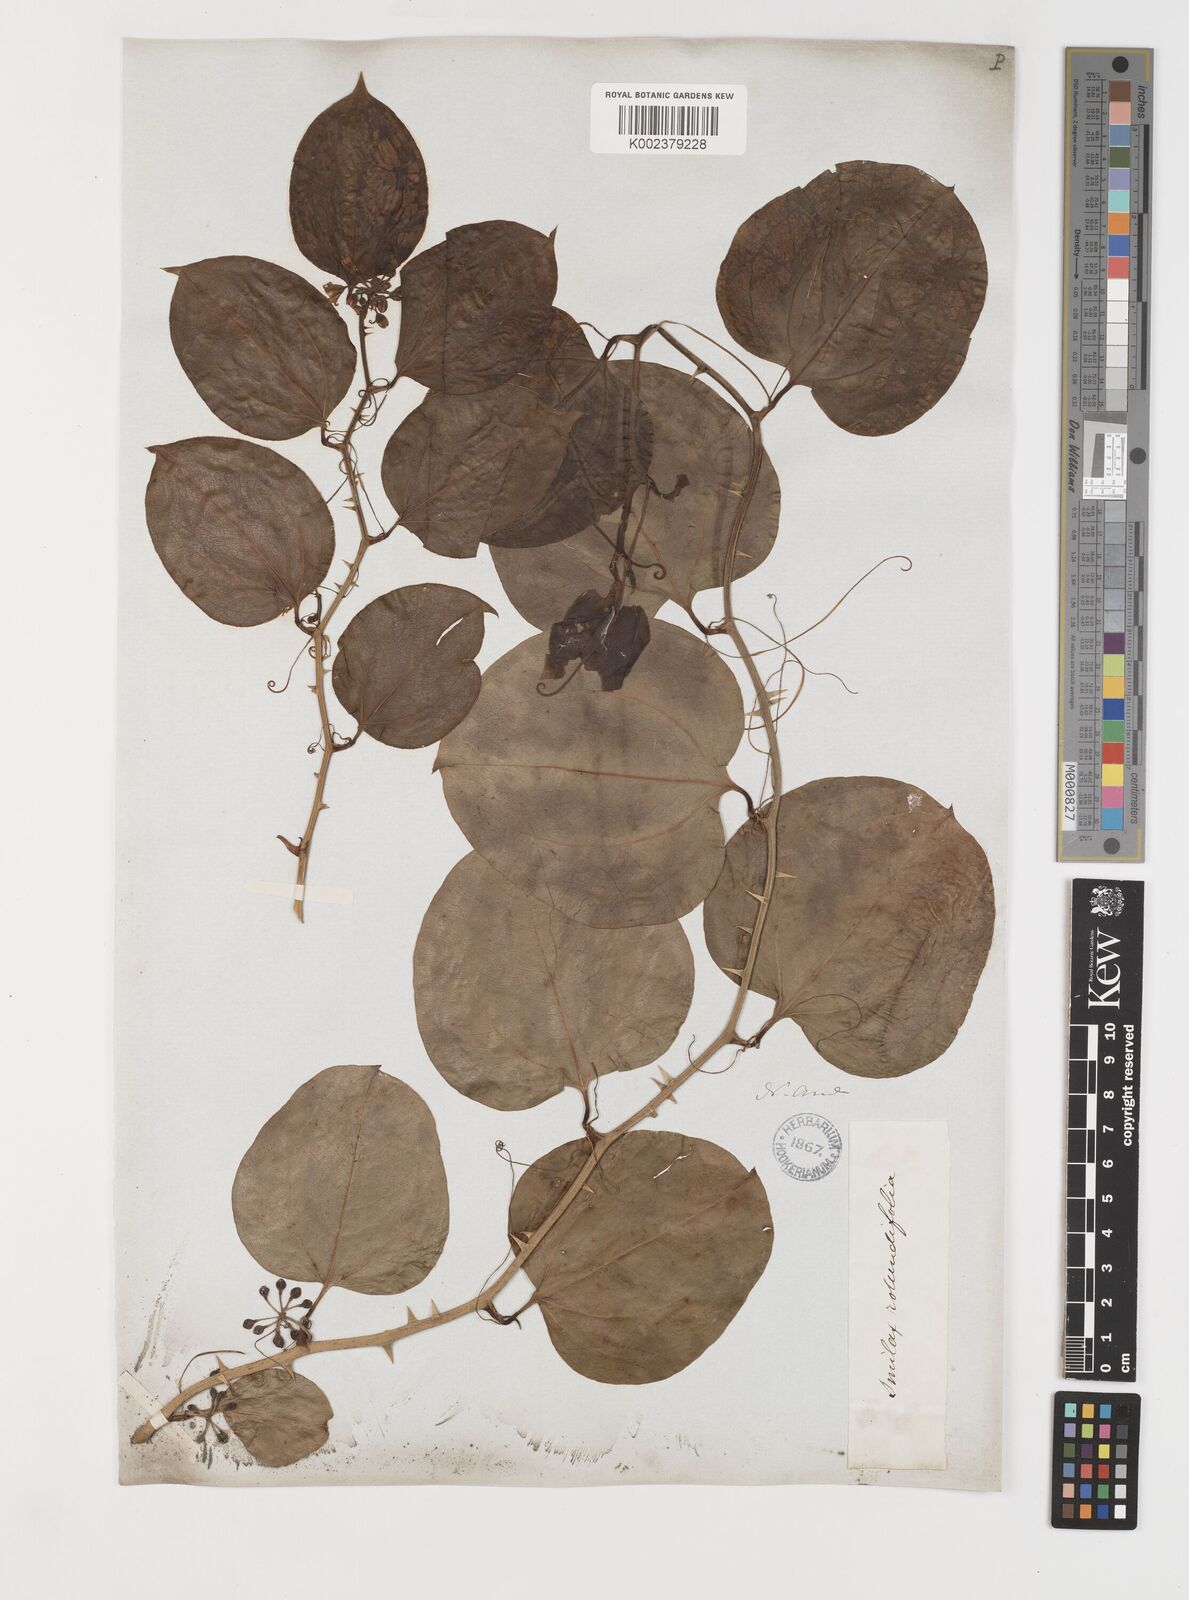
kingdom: Plantae
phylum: Tracheophyta
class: Liliopsida
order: Liliales
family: Smilacaceae
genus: Smilax
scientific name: Smilax rotundifolia
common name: Bullbriar
